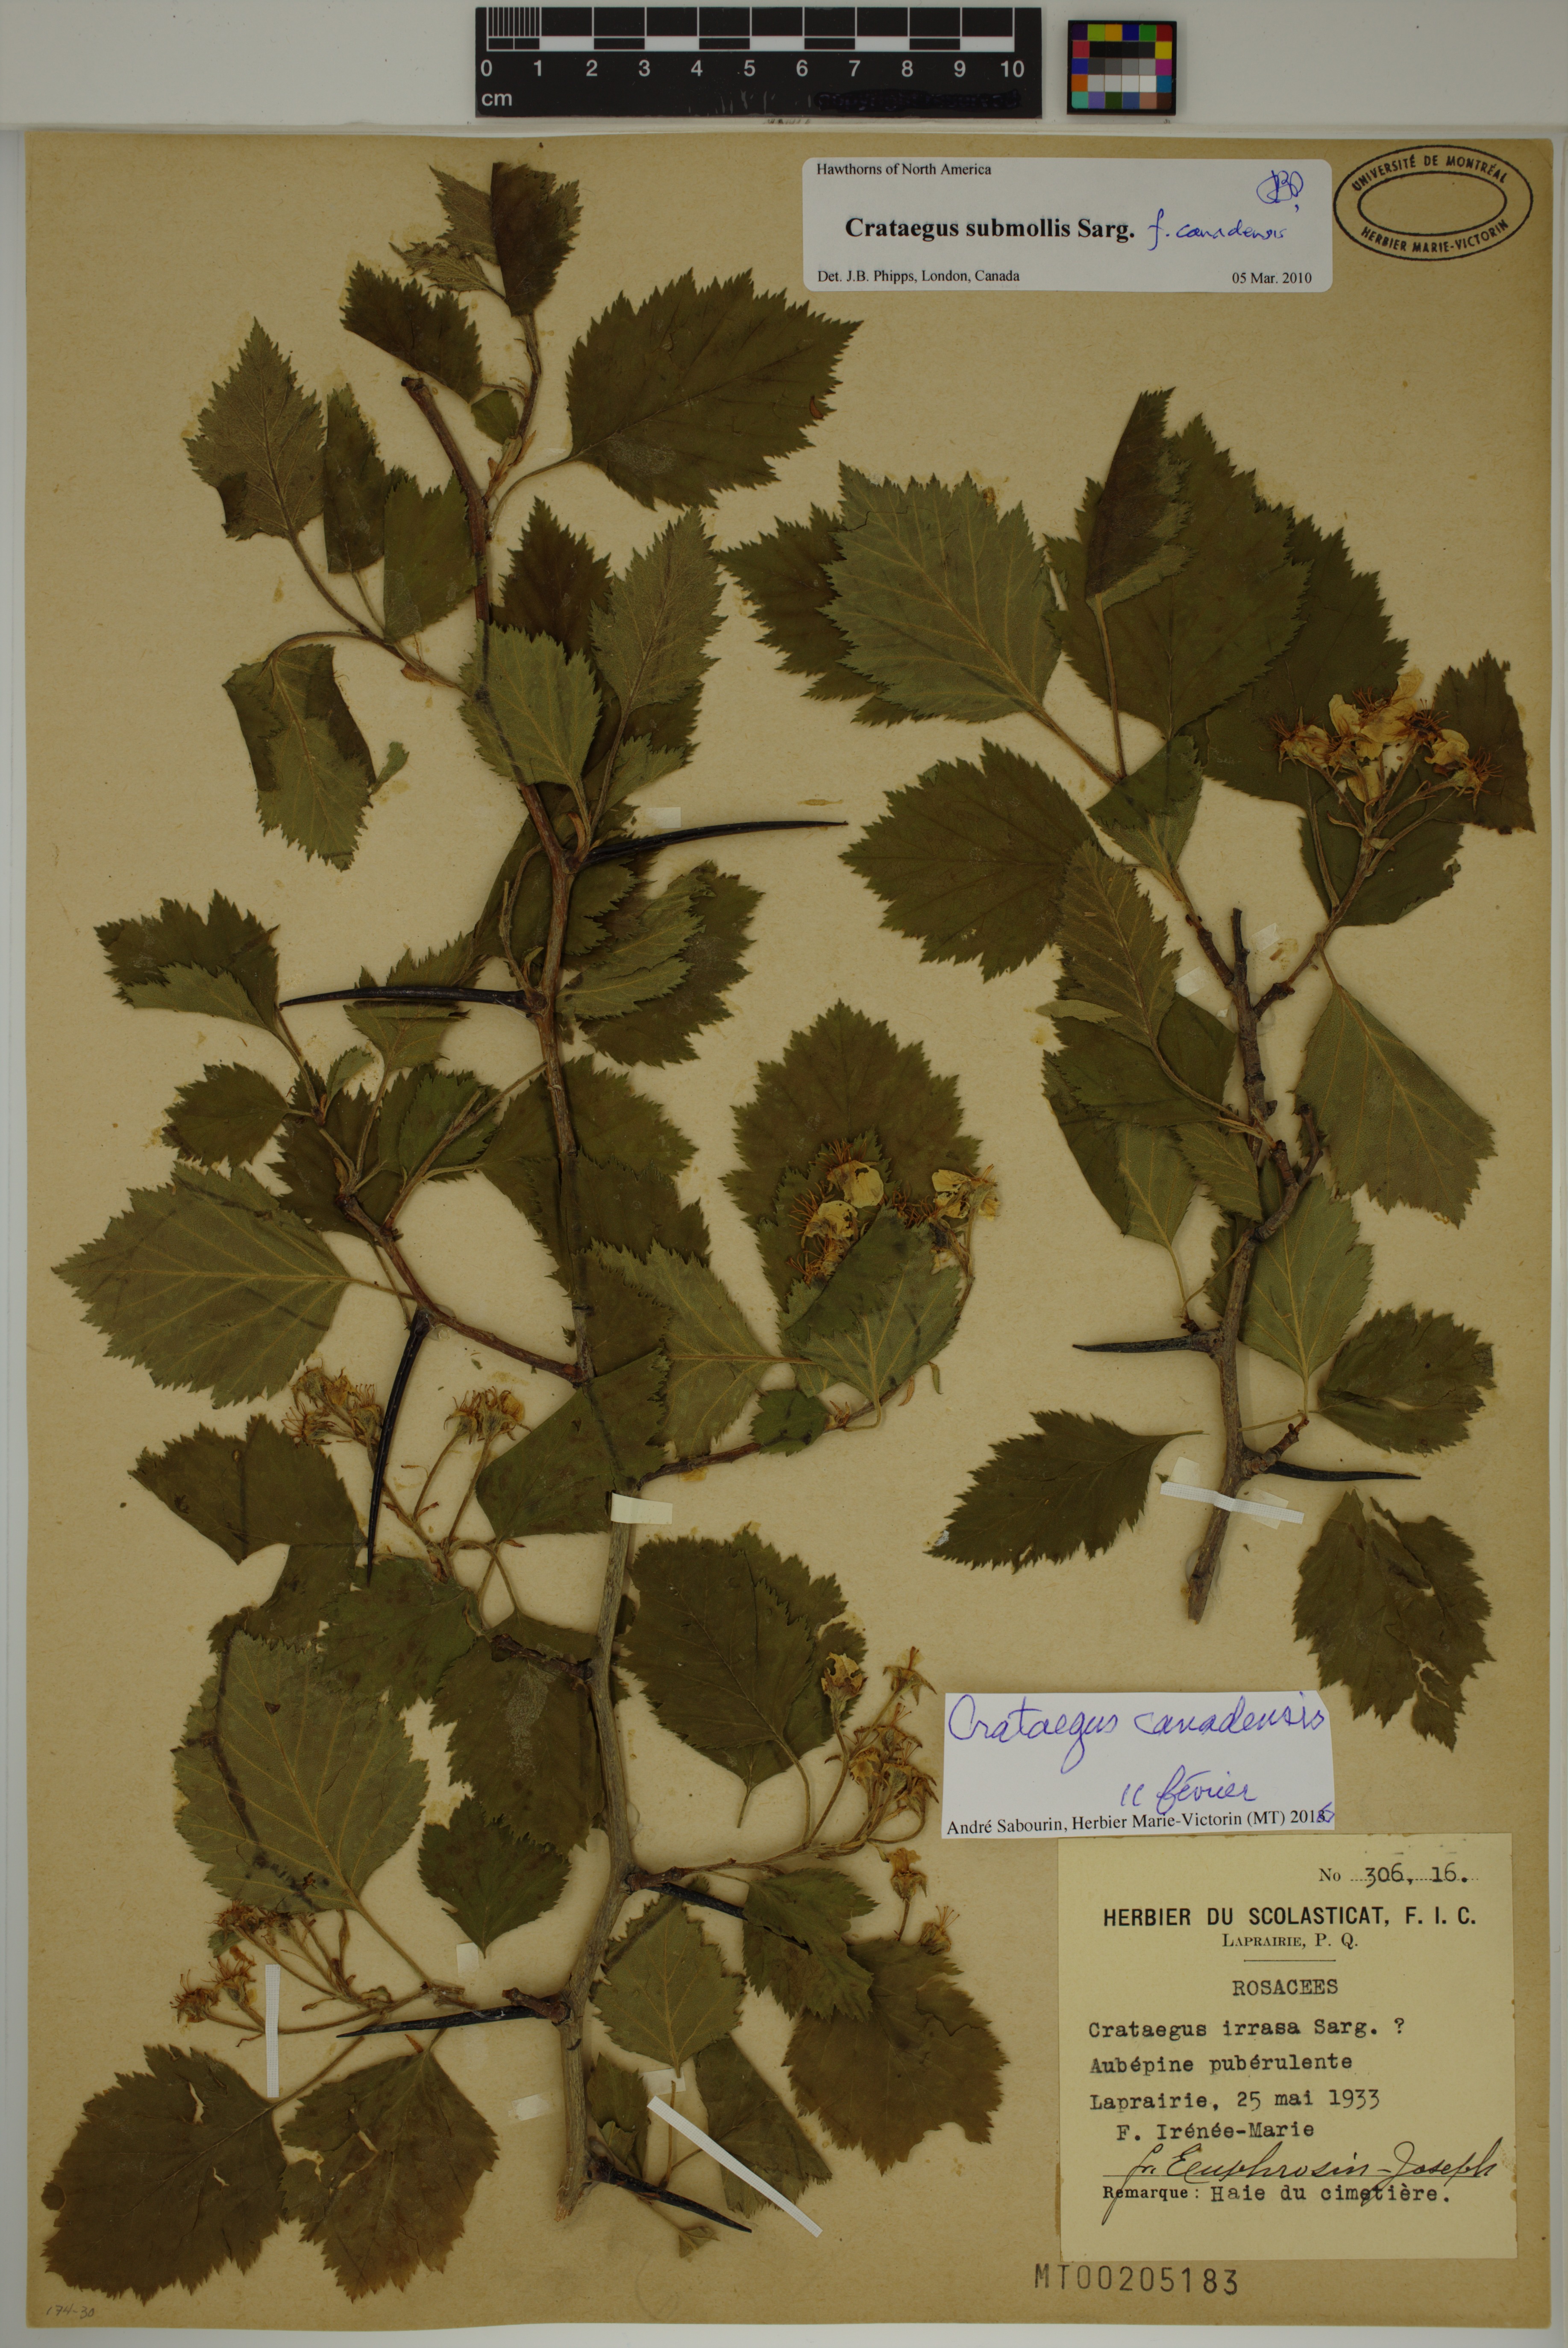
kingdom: Plantae
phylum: Tracheophyta
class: Magnoliopsida
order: Rosales
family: Rosaceae
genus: Crataegus
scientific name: Crataegus submollis
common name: Hairy cockspurthorn
